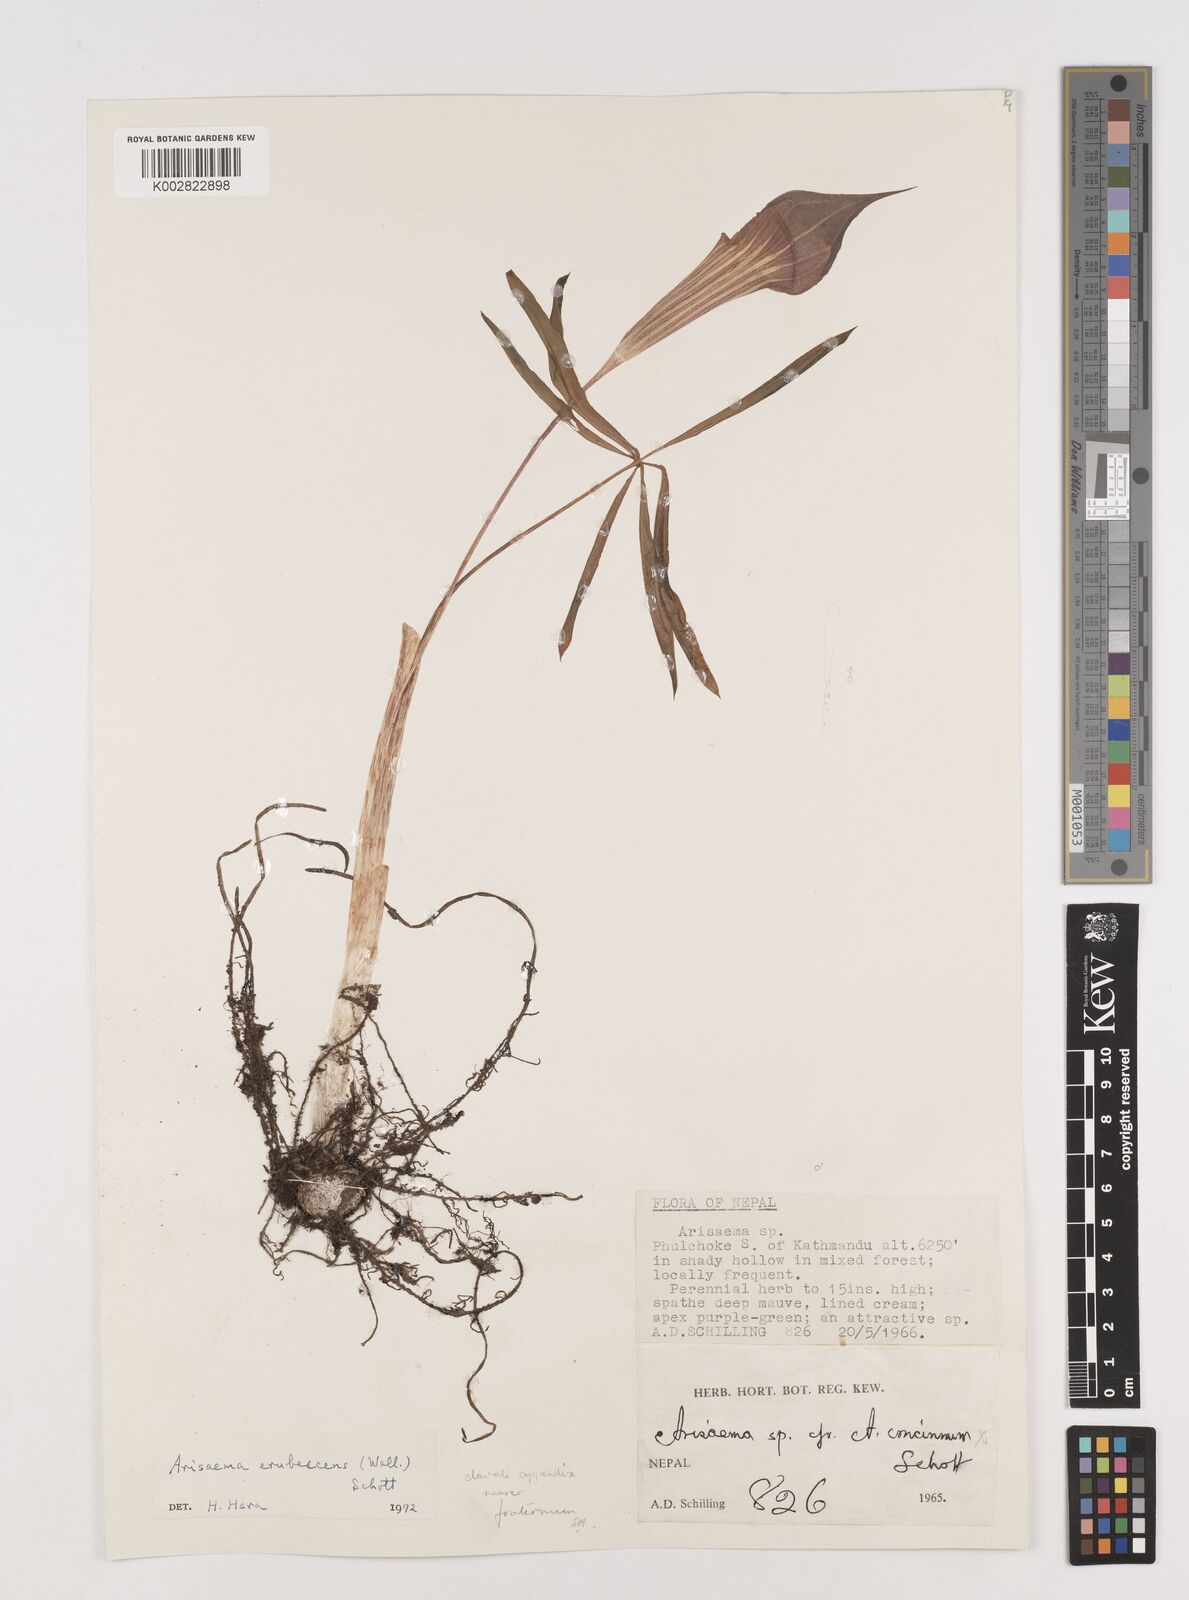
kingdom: Plantae
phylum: Tracheophyta
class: Liliopsida
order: Alismatales
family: Araceae
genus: Arisaema
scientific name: Arisaema erubescens
